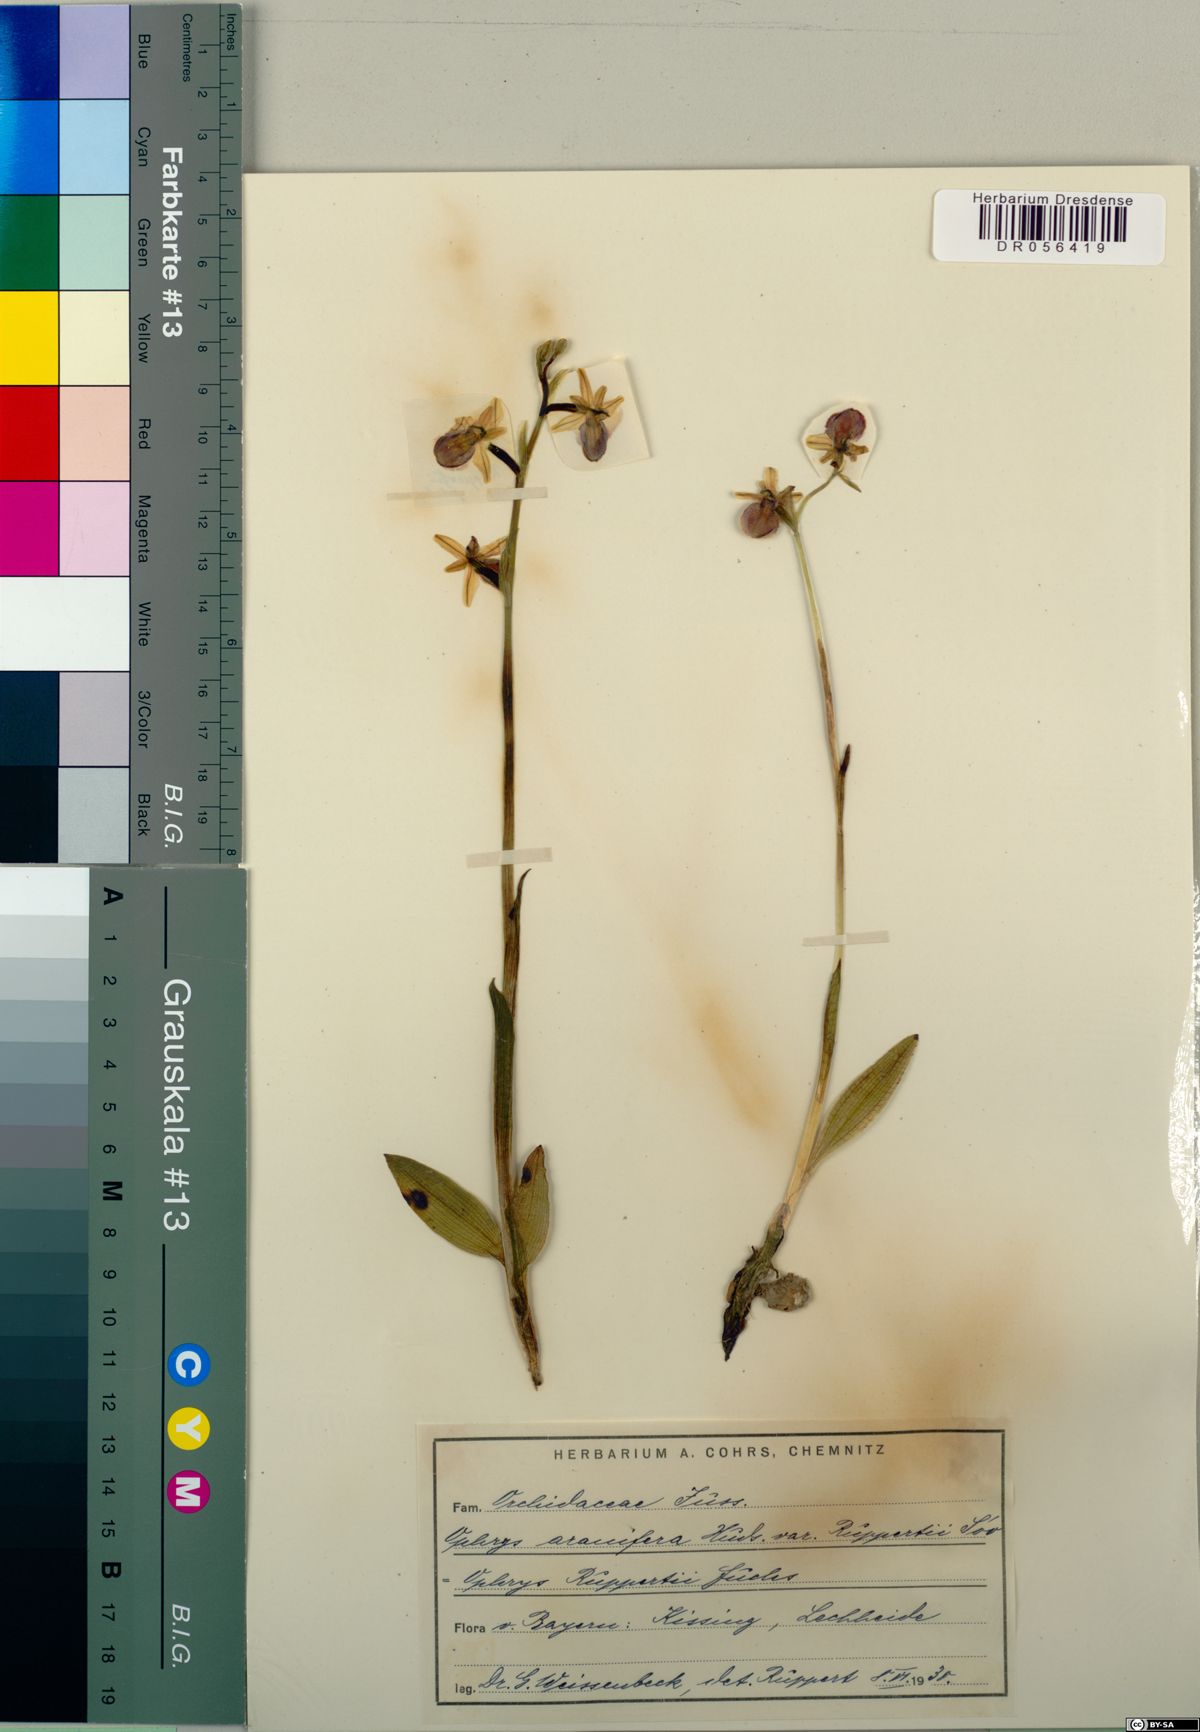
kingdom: Plantae
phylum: Tracheophyta
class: Liliopsida
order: Asparagales
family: Orchidaceae
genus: Ophrys
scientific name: Ophrys sphegodes
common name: Early spider-orchid
